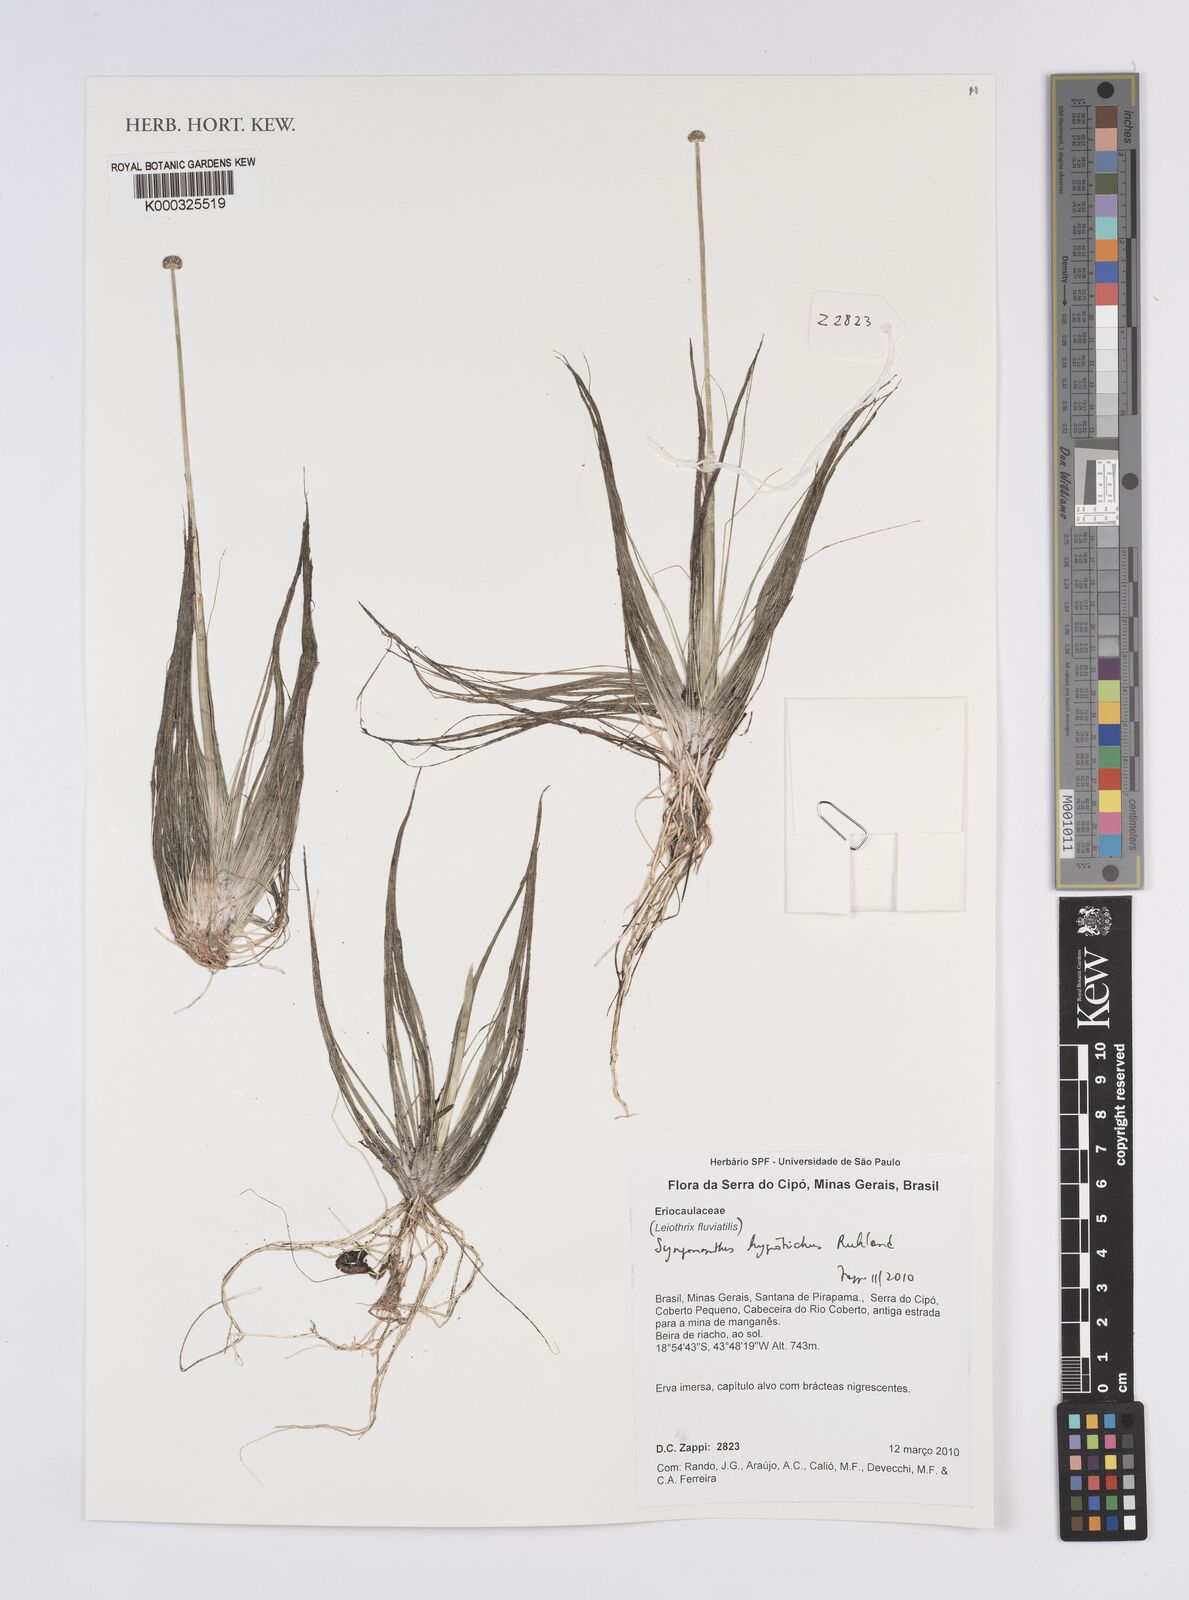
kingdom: Plantae
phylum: Tracheophyta
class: Liliopsida
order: Poales
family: Eriocaulaceae
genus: Leiothrix
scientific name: Leiothrix fluitans
